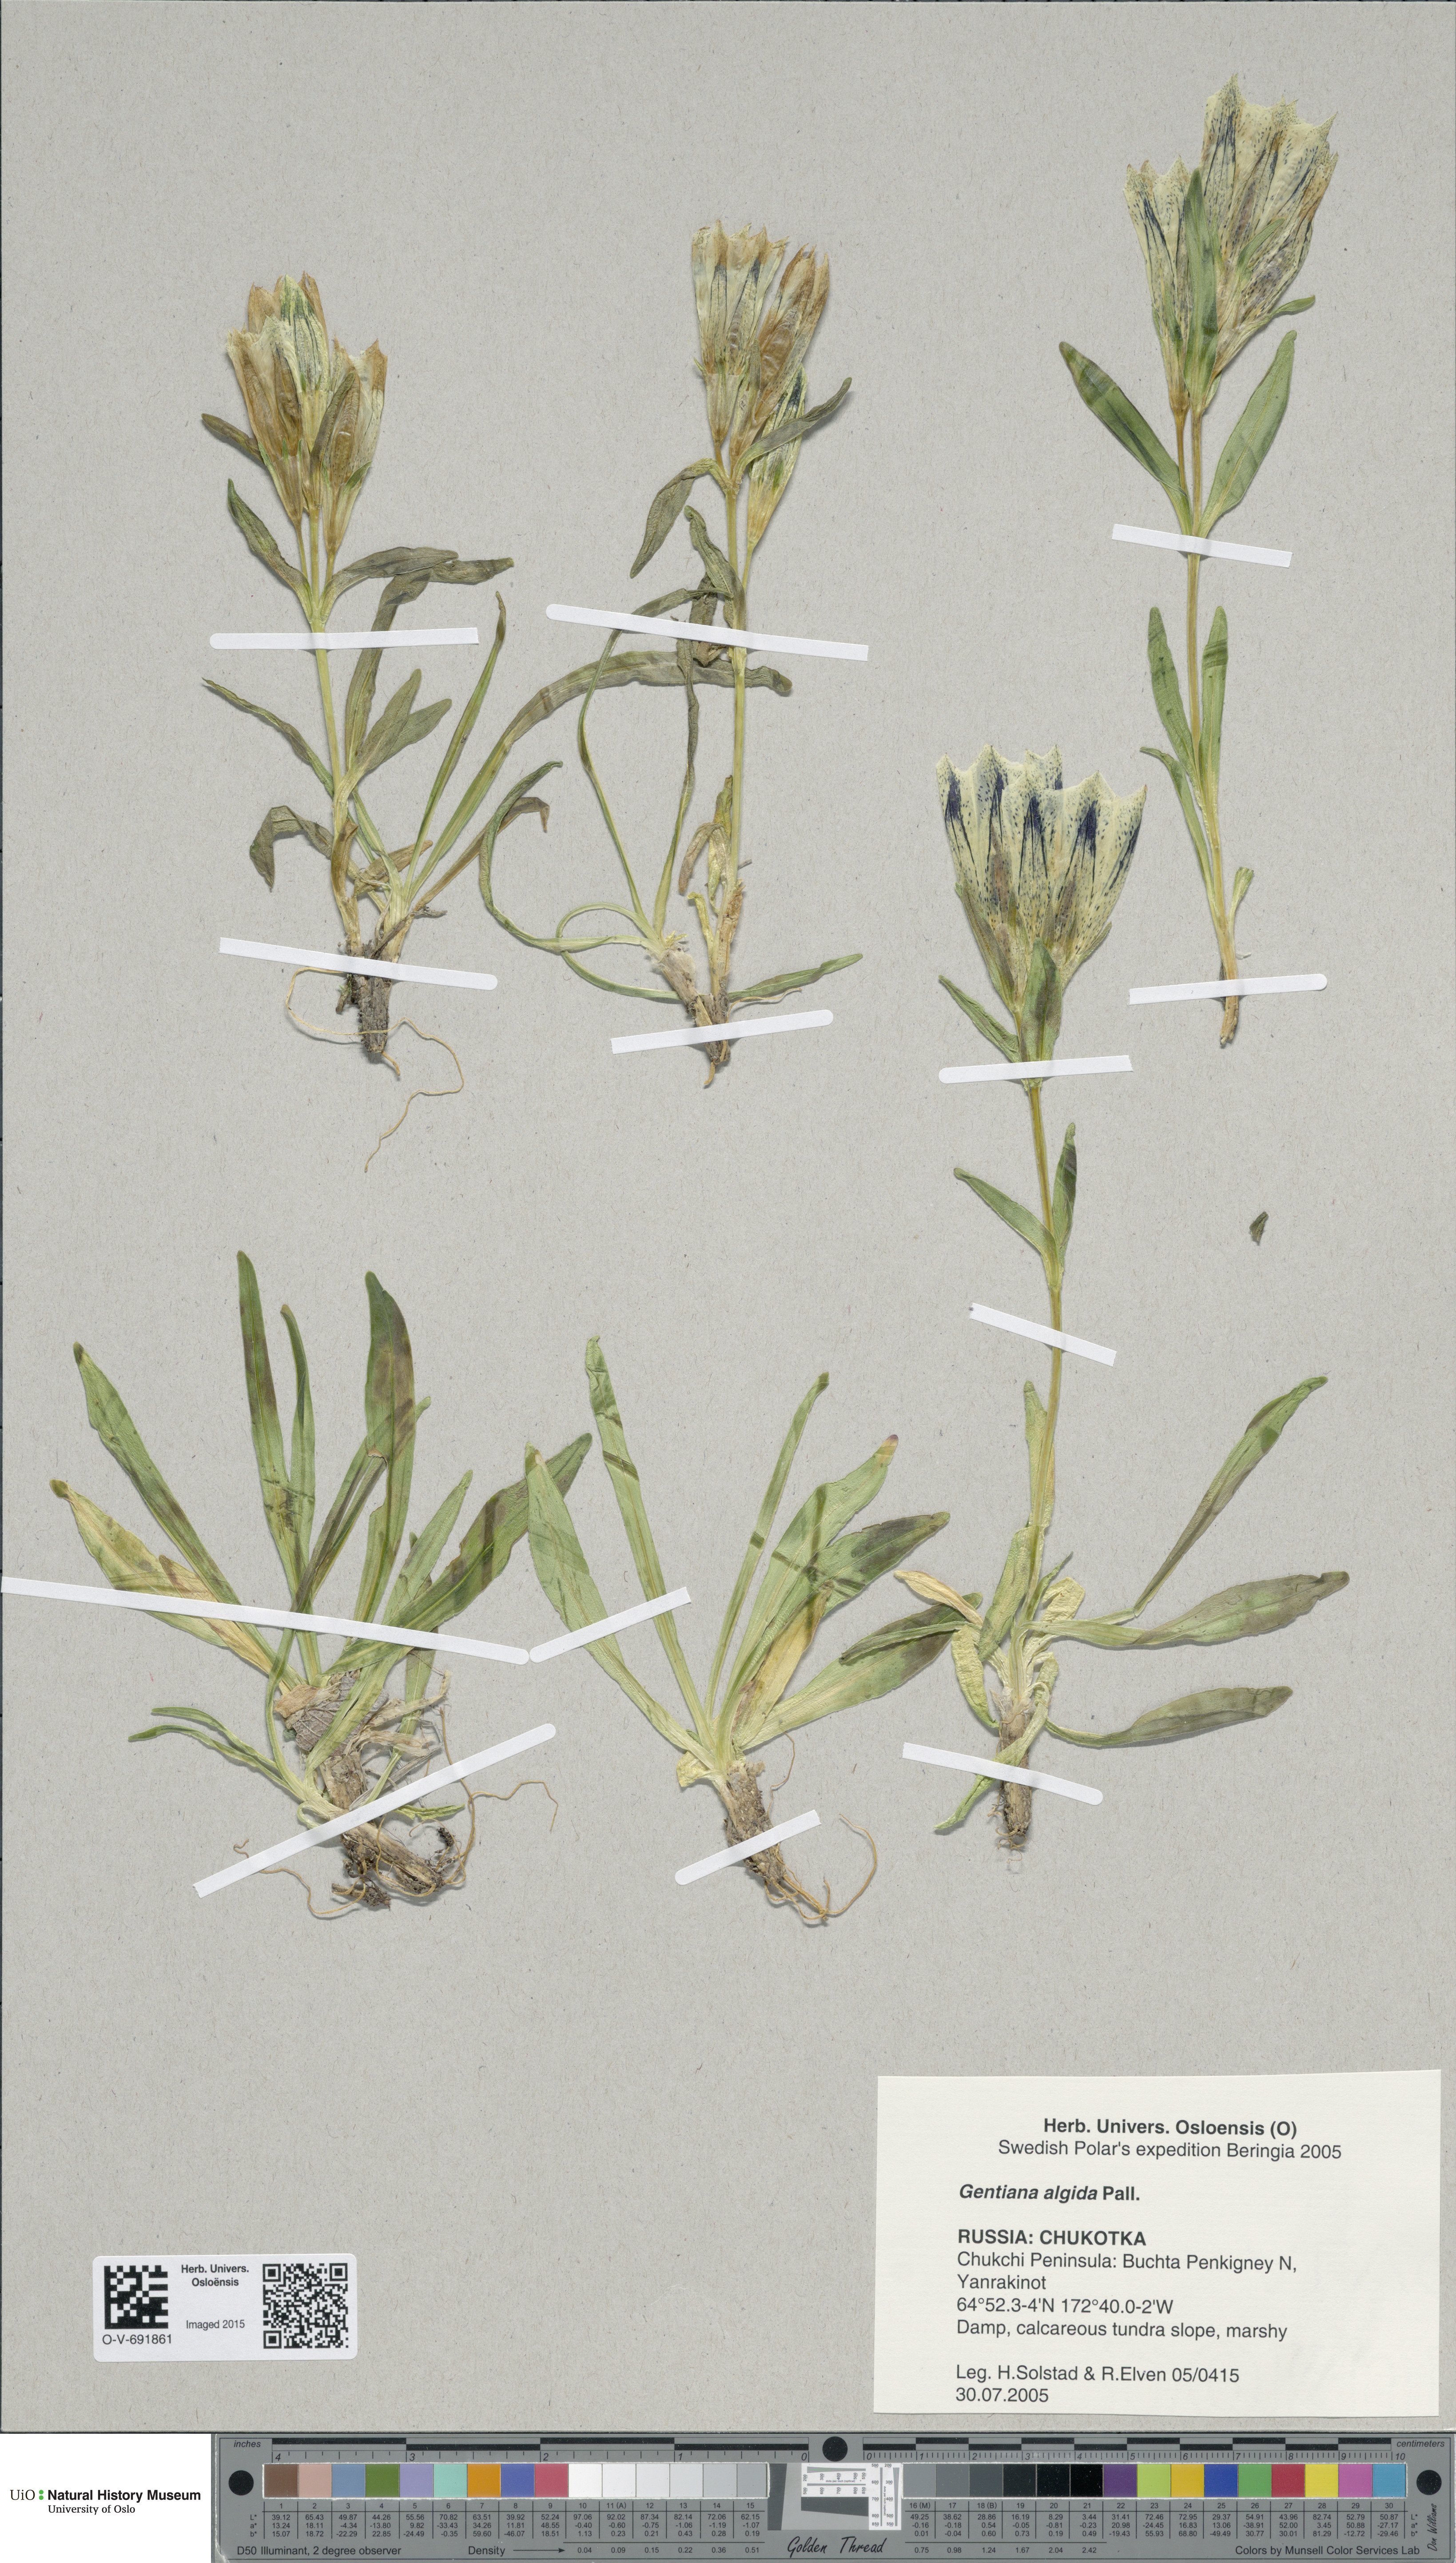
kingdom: Plantae
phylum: Tracheophyta
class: Magnoliopsida
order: Gentianales
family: Gentianaceae
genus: Gentiana
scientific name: Gentiana algida
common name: Arctic gentian
